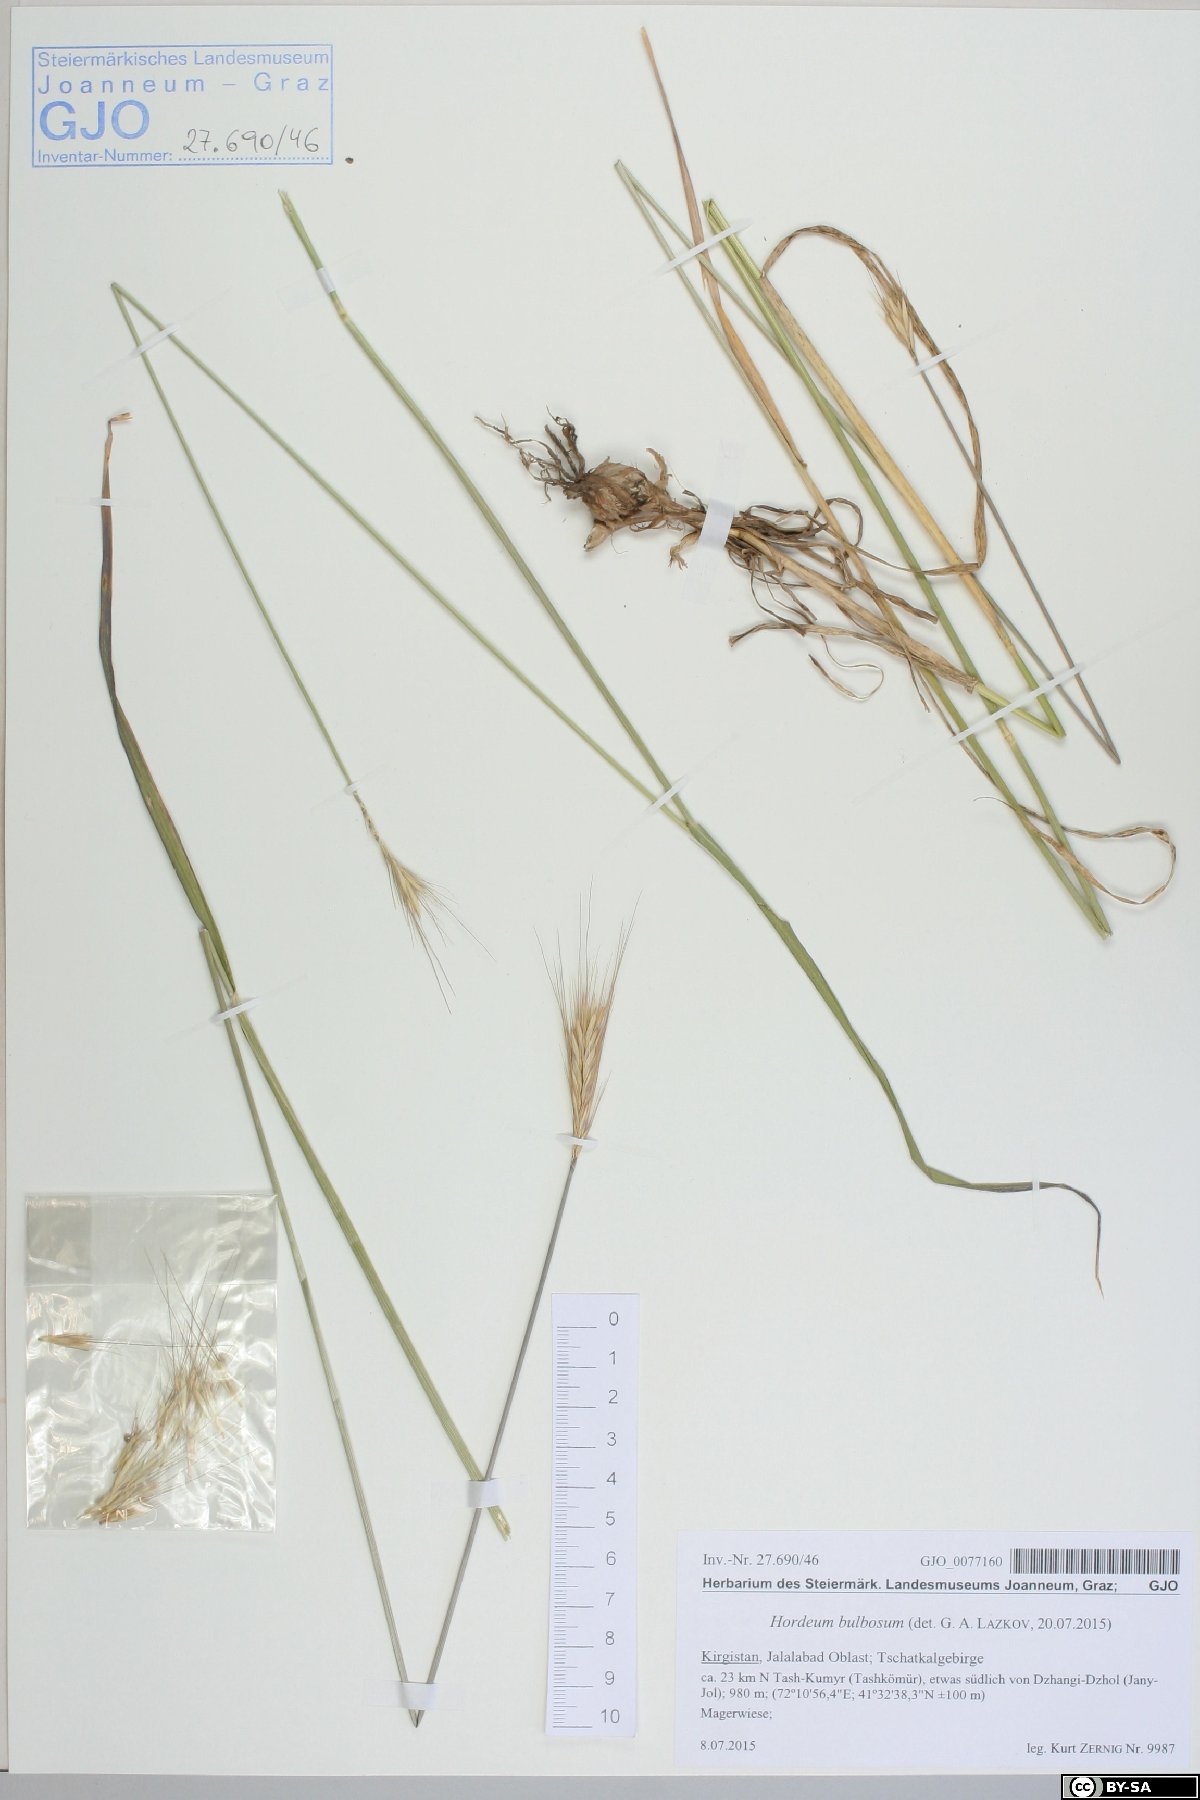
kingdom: Plantae
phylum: Tracheophyta
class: Liliopsida
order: Poales
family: Poaceae
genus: Hordeum
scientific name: Hordeum bulbosum
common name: Bulbous barley
